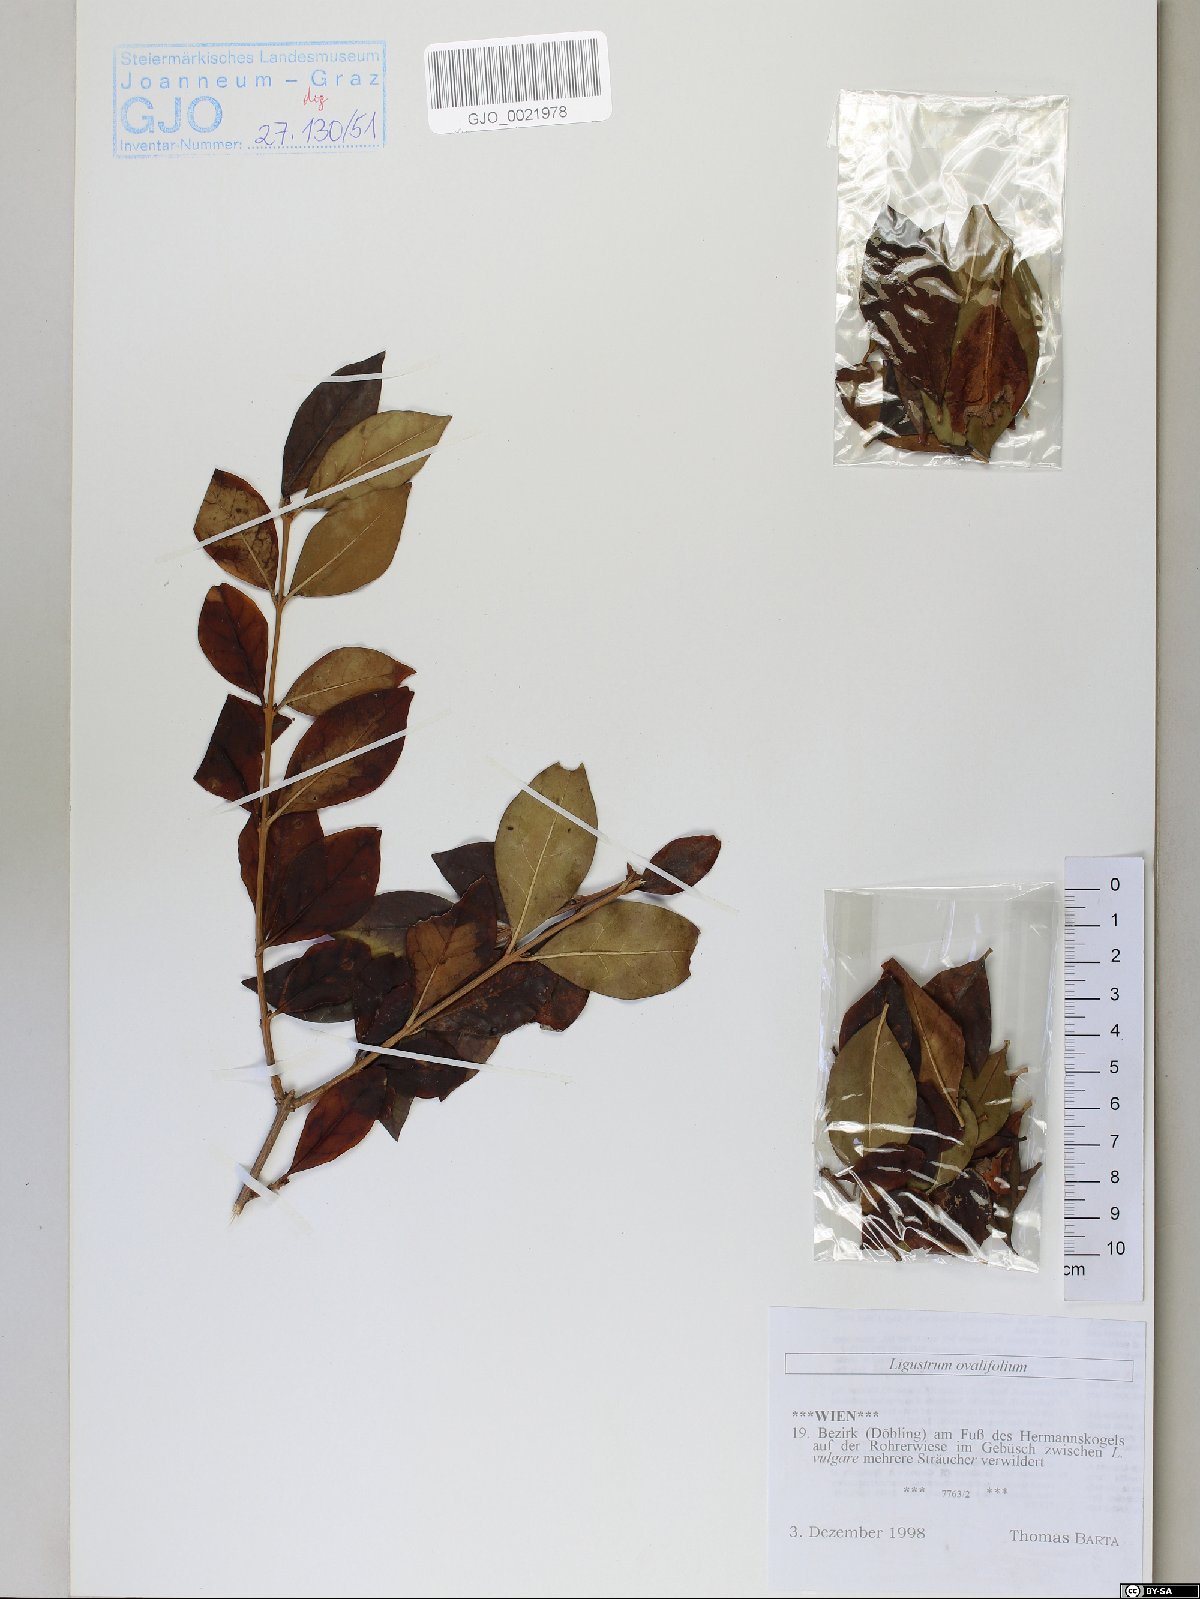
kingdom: Plantae
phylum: Tracheophyta
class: Magnoliopsida
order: Lamiales
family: Oleaceae
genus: Ligustrum
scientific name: Ligustrum ovalifolium
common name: California privet
